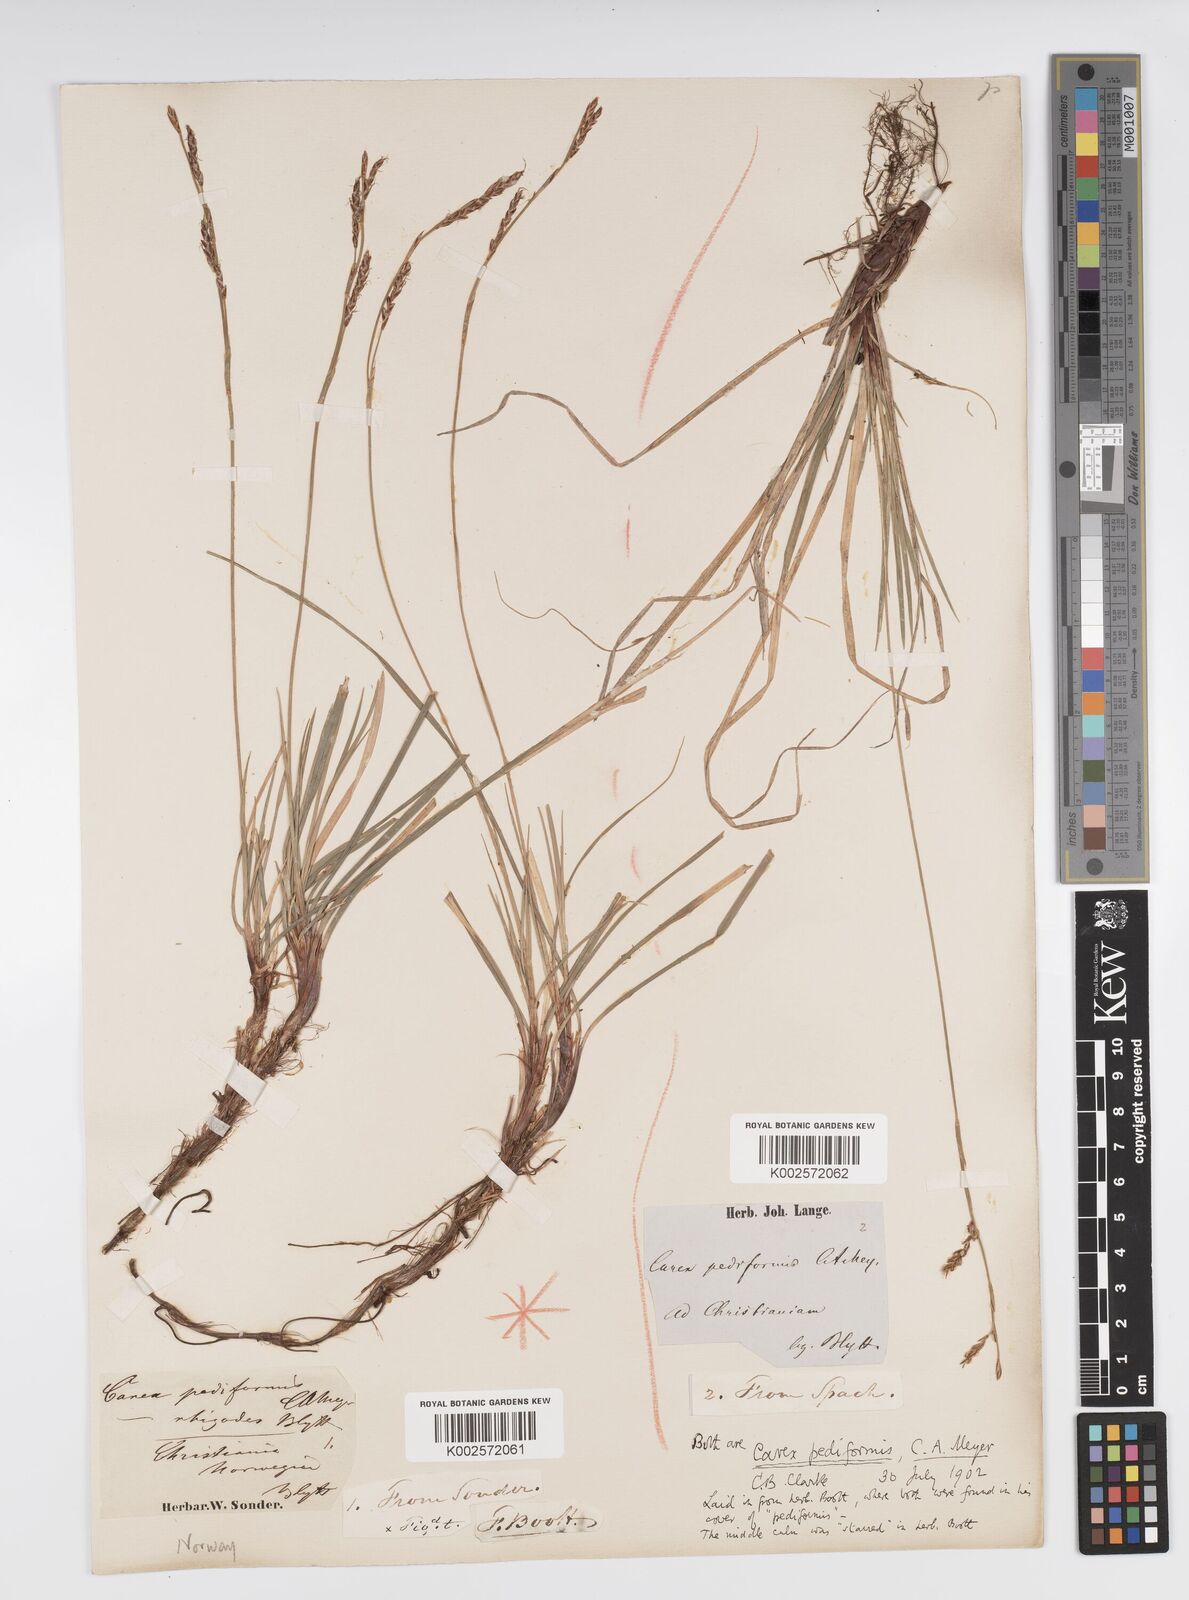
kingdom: Plantae
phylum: Tracheophyta
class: Liliopsida
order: Poales
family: Cyperaceae
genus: Carex
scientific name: Carex pediformis
